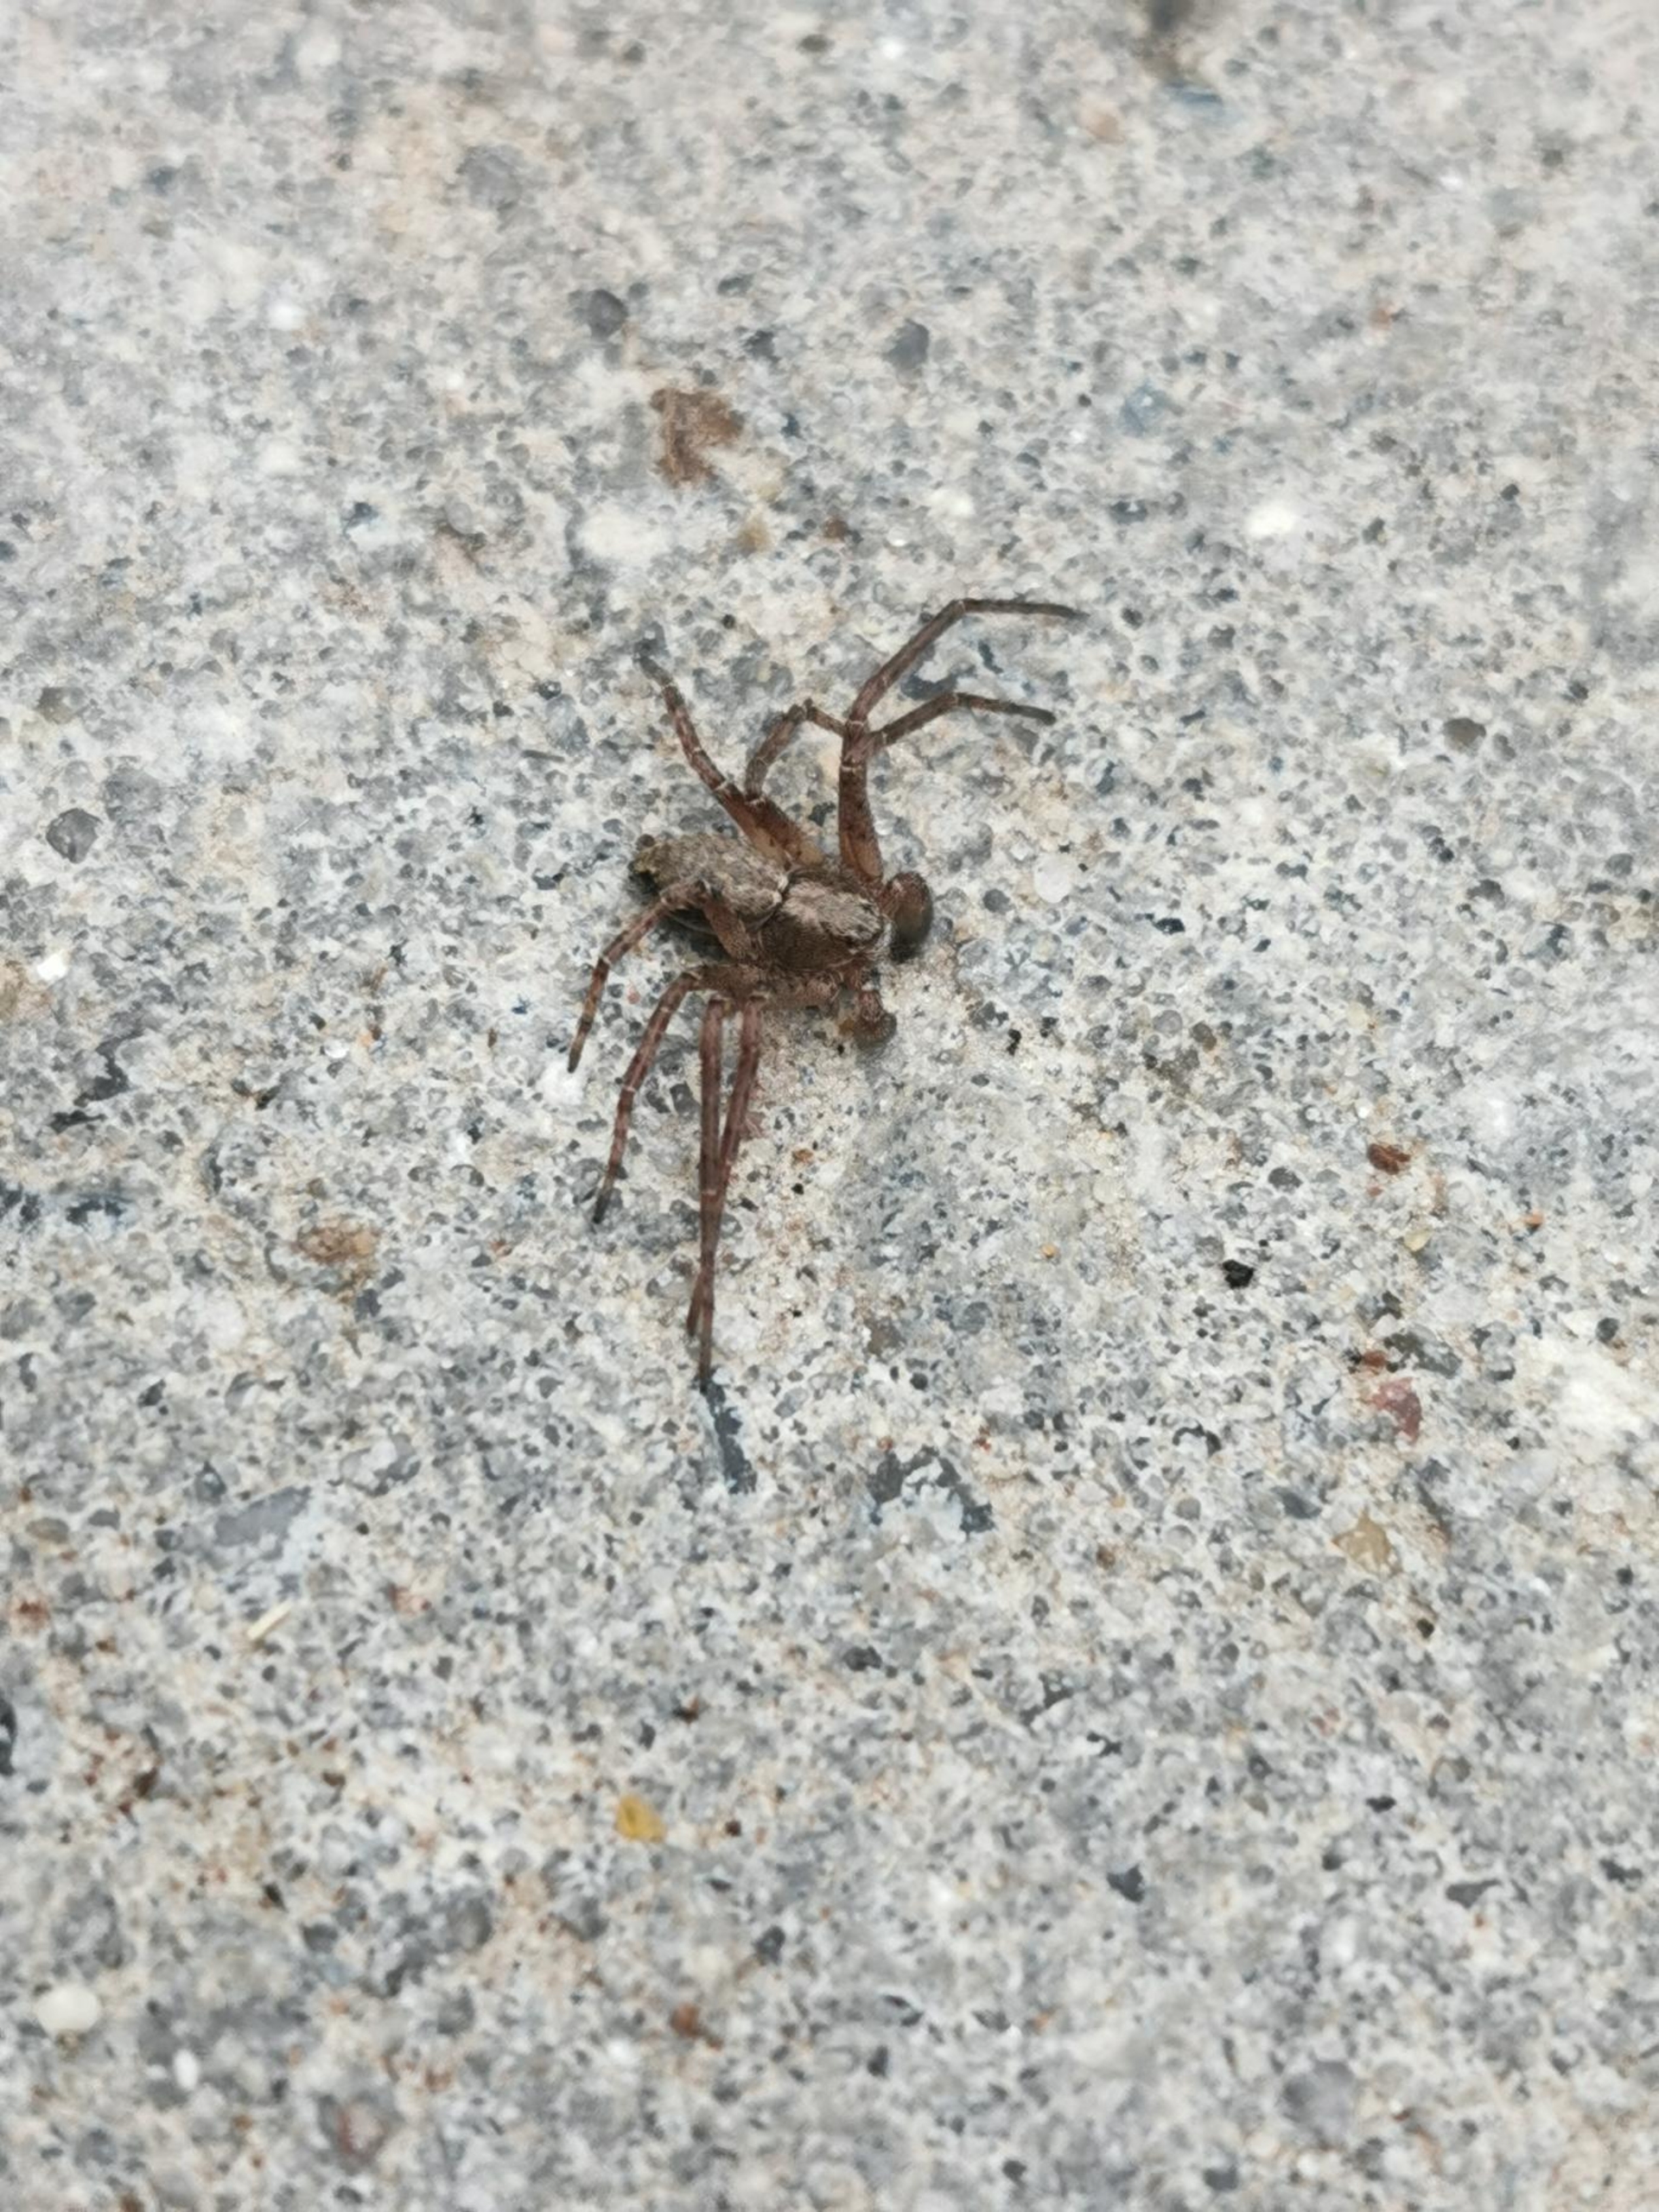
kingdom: Animalia
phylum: Arthropoda
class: Arachnida
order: Araneae
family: Philodromidae
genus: Philodromus
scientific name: Philodromus
